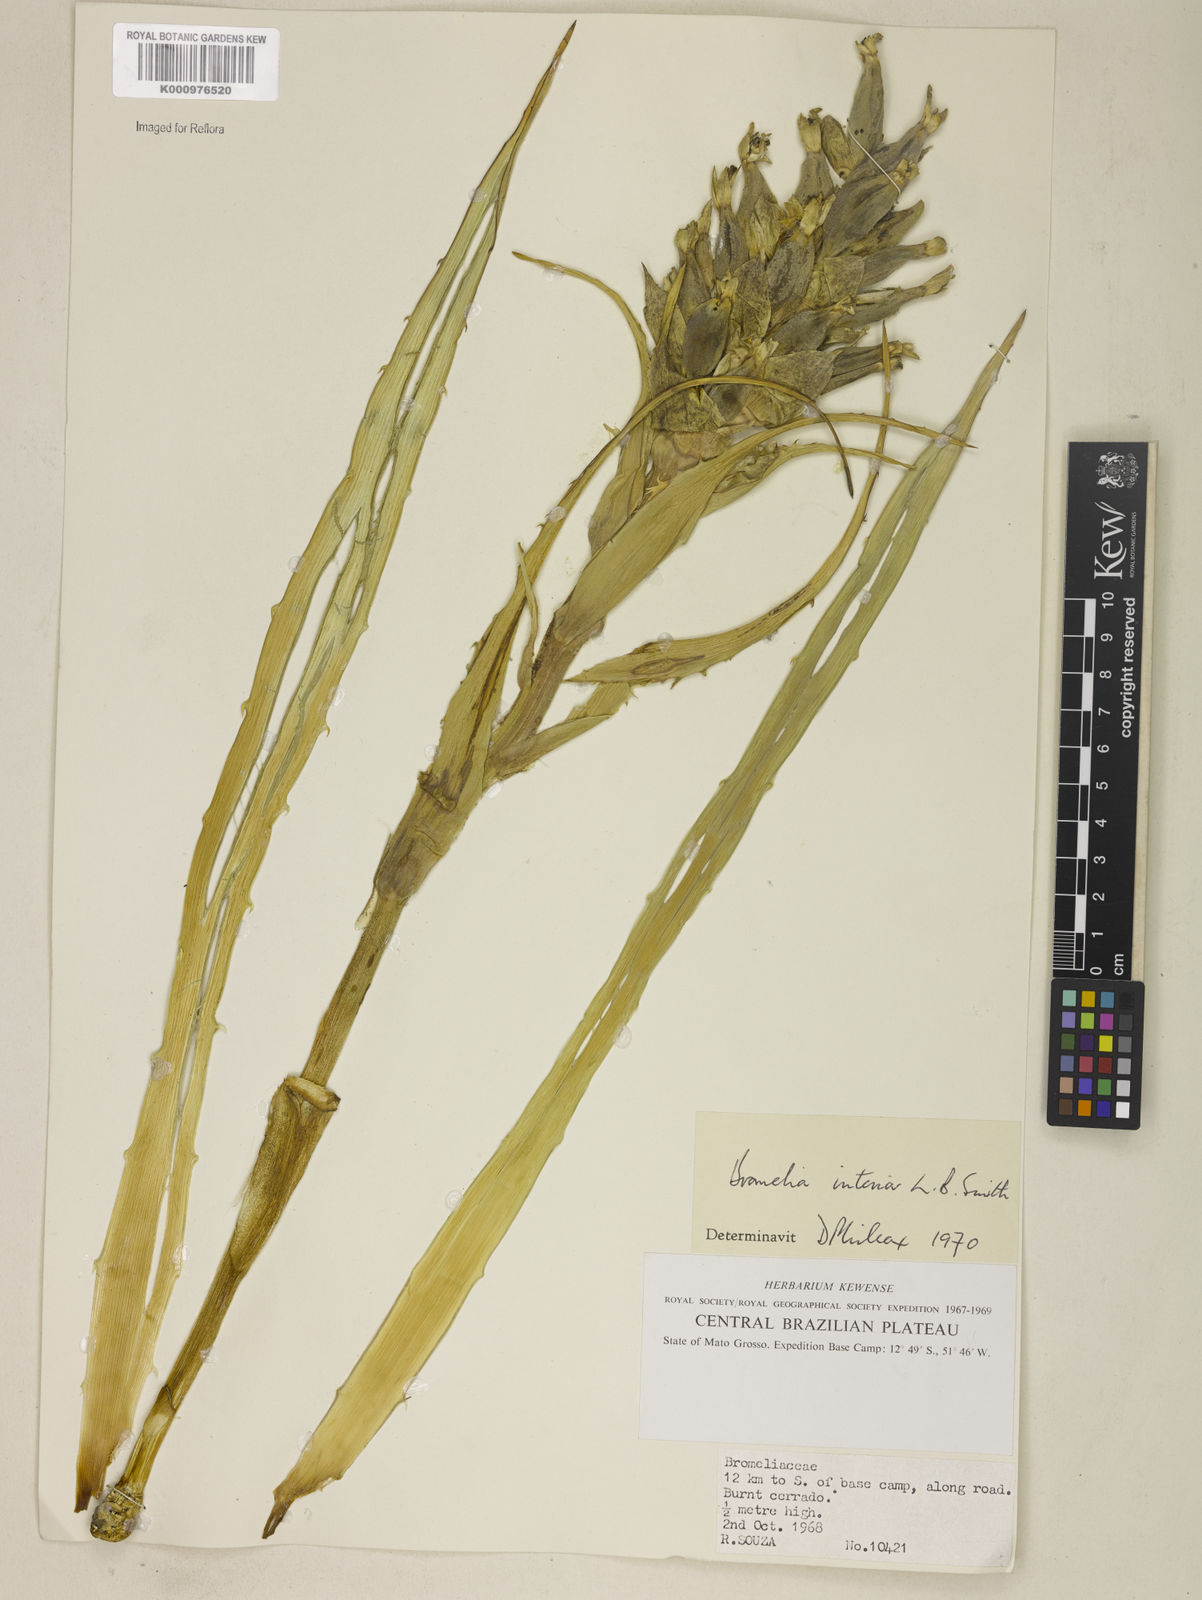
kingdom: Plantae
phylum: Tracheophyta
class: Liliopsida
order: Poales
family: Bromeliaceae
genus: Bromelia
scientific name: Bromelia interior
